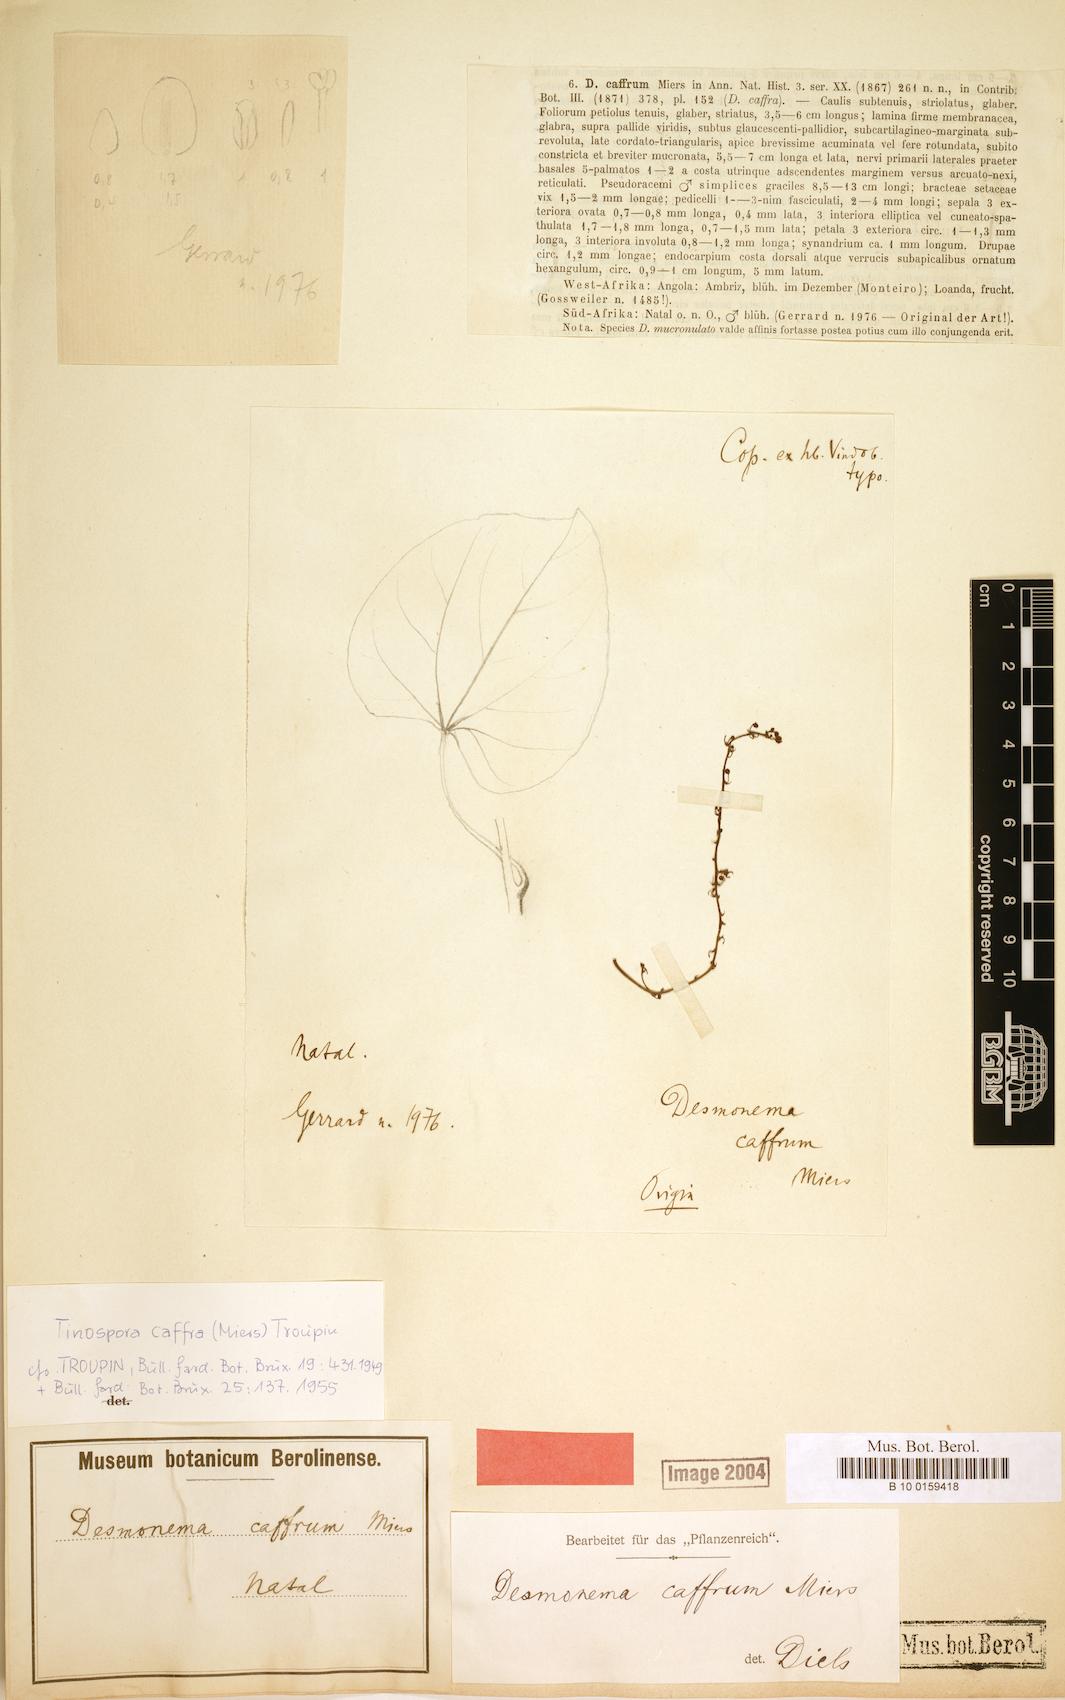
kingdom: Plantae
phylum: Tracheophyta
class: Magnoliopsida
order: Ranunculales
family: Menispermaceae
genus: Tinospora
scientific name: Tinospora caffra
